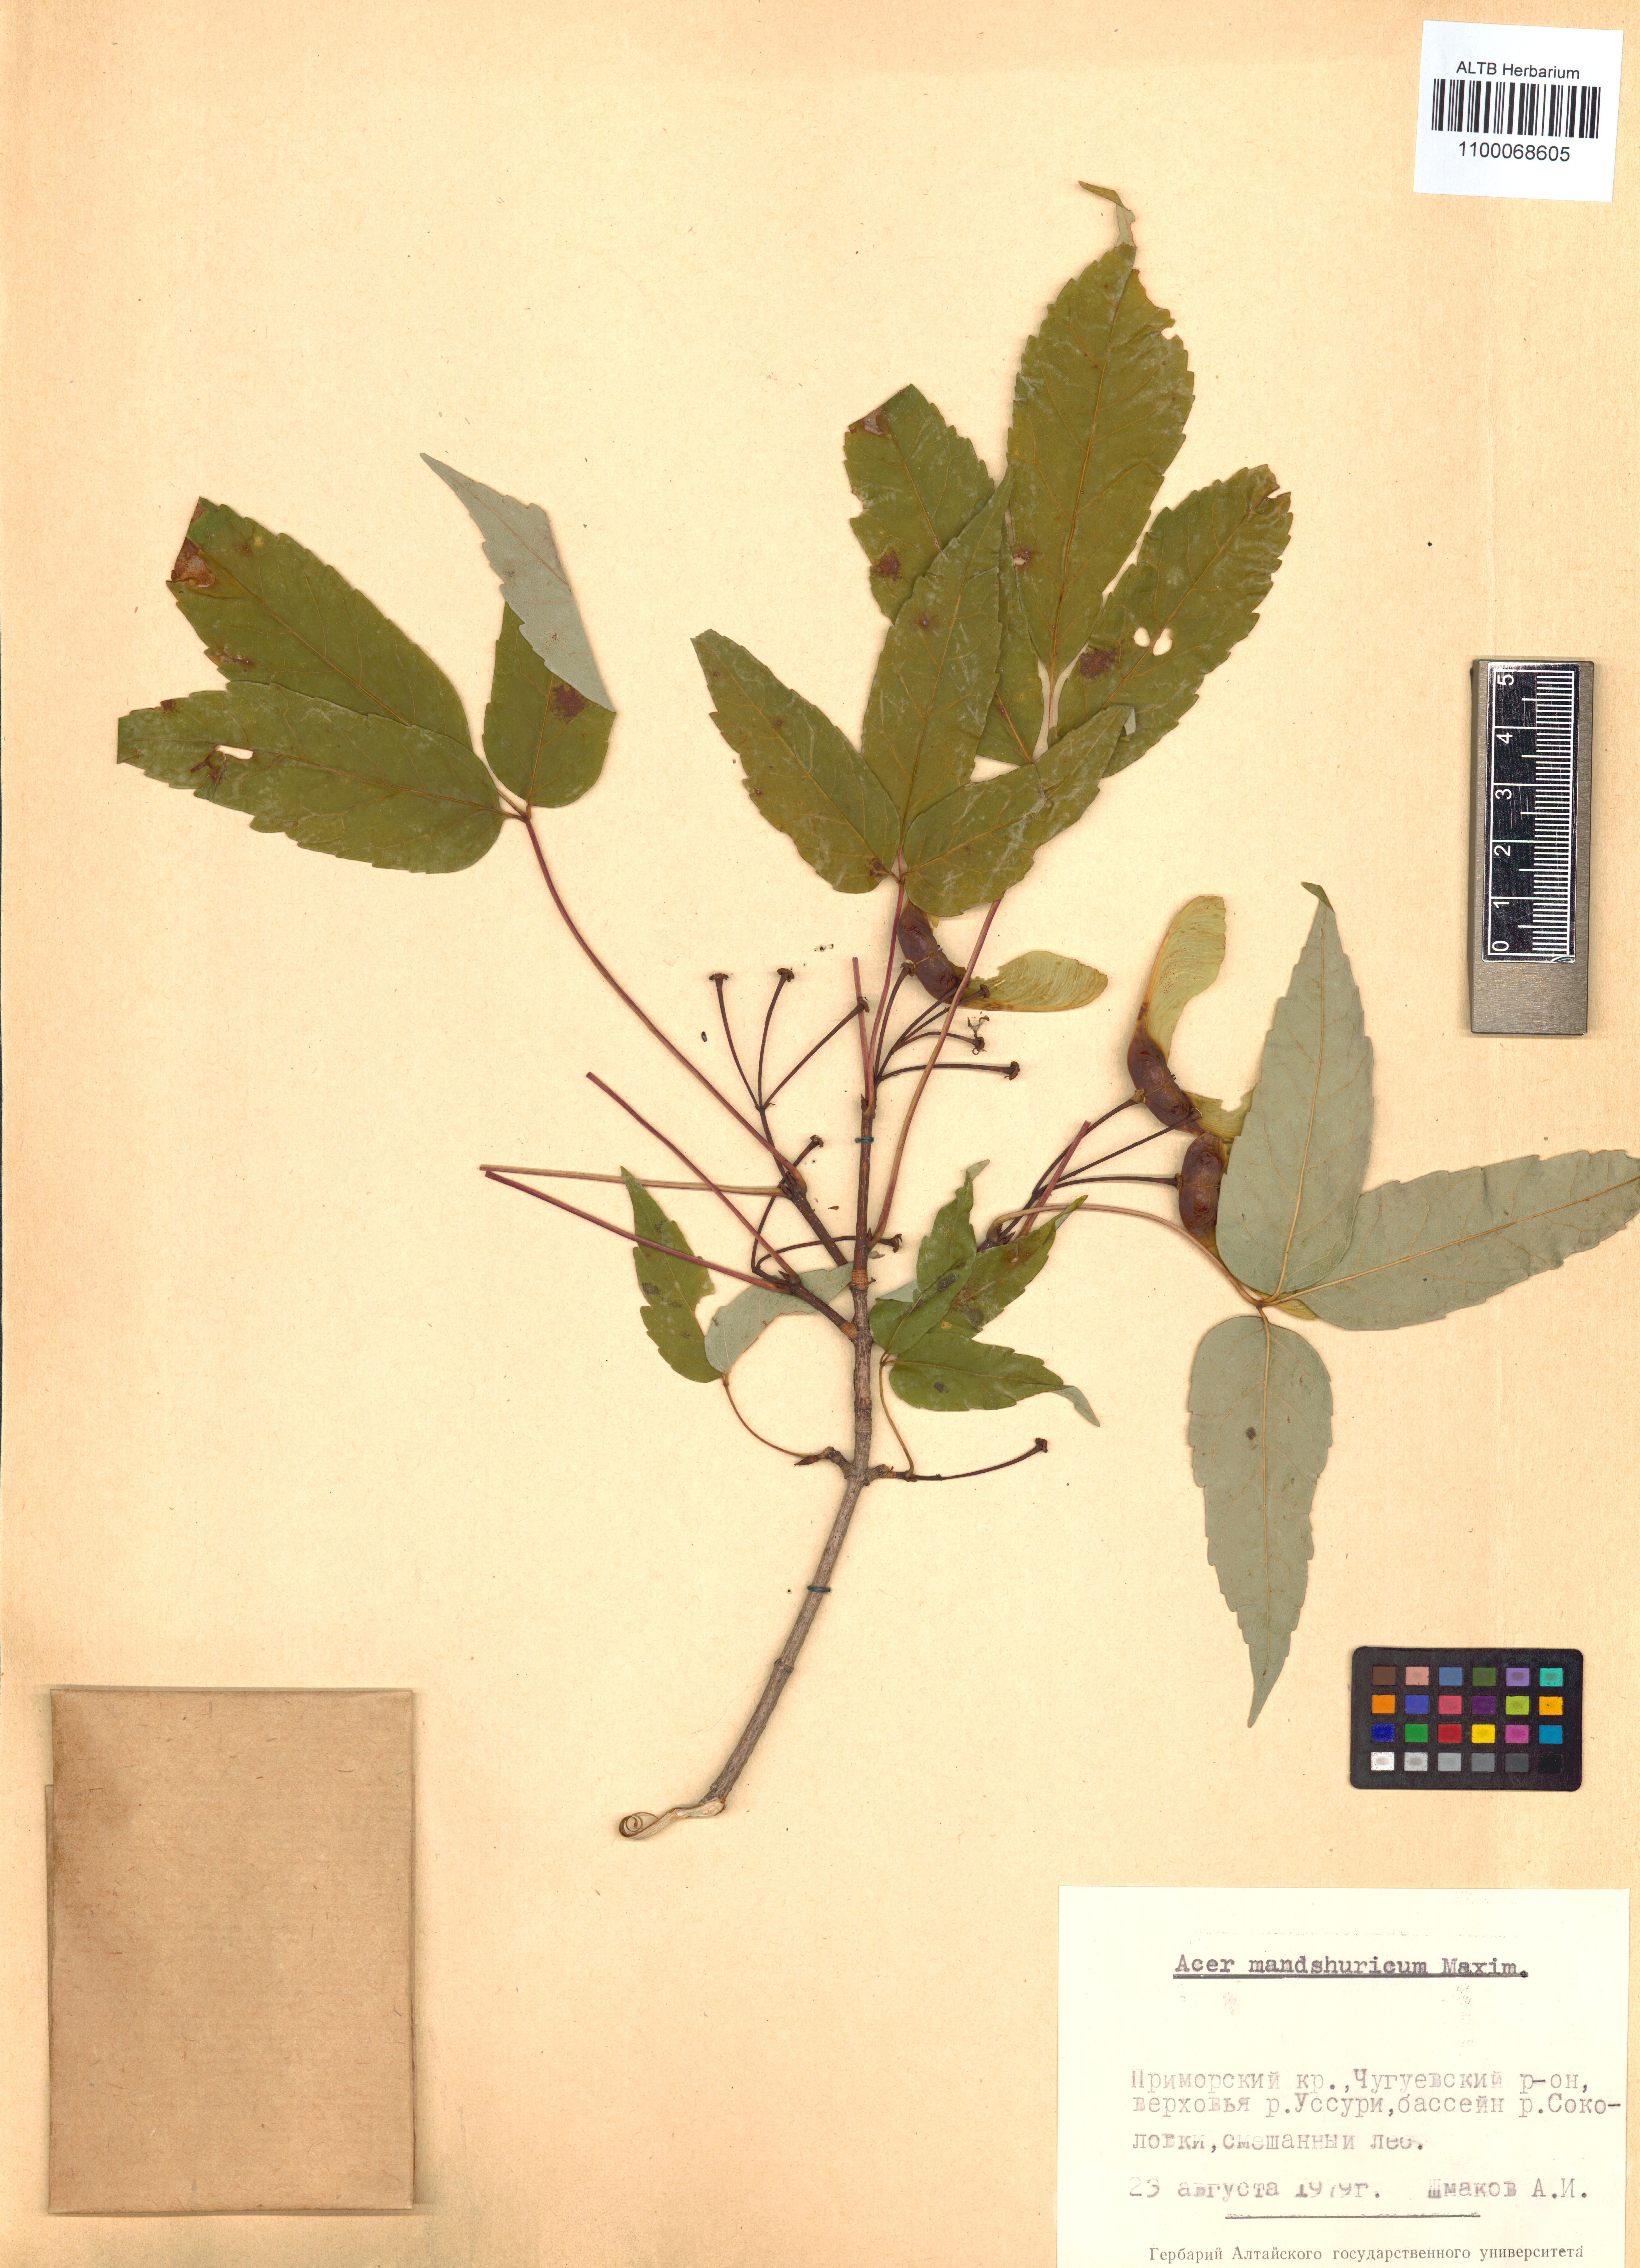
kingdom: Plantae
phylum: Tracheophyta
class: Magnoliopsida
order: Sapindales
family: Sapindaceae
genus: Acer
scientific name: Acer mandshuricum
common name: Manchurian maple
